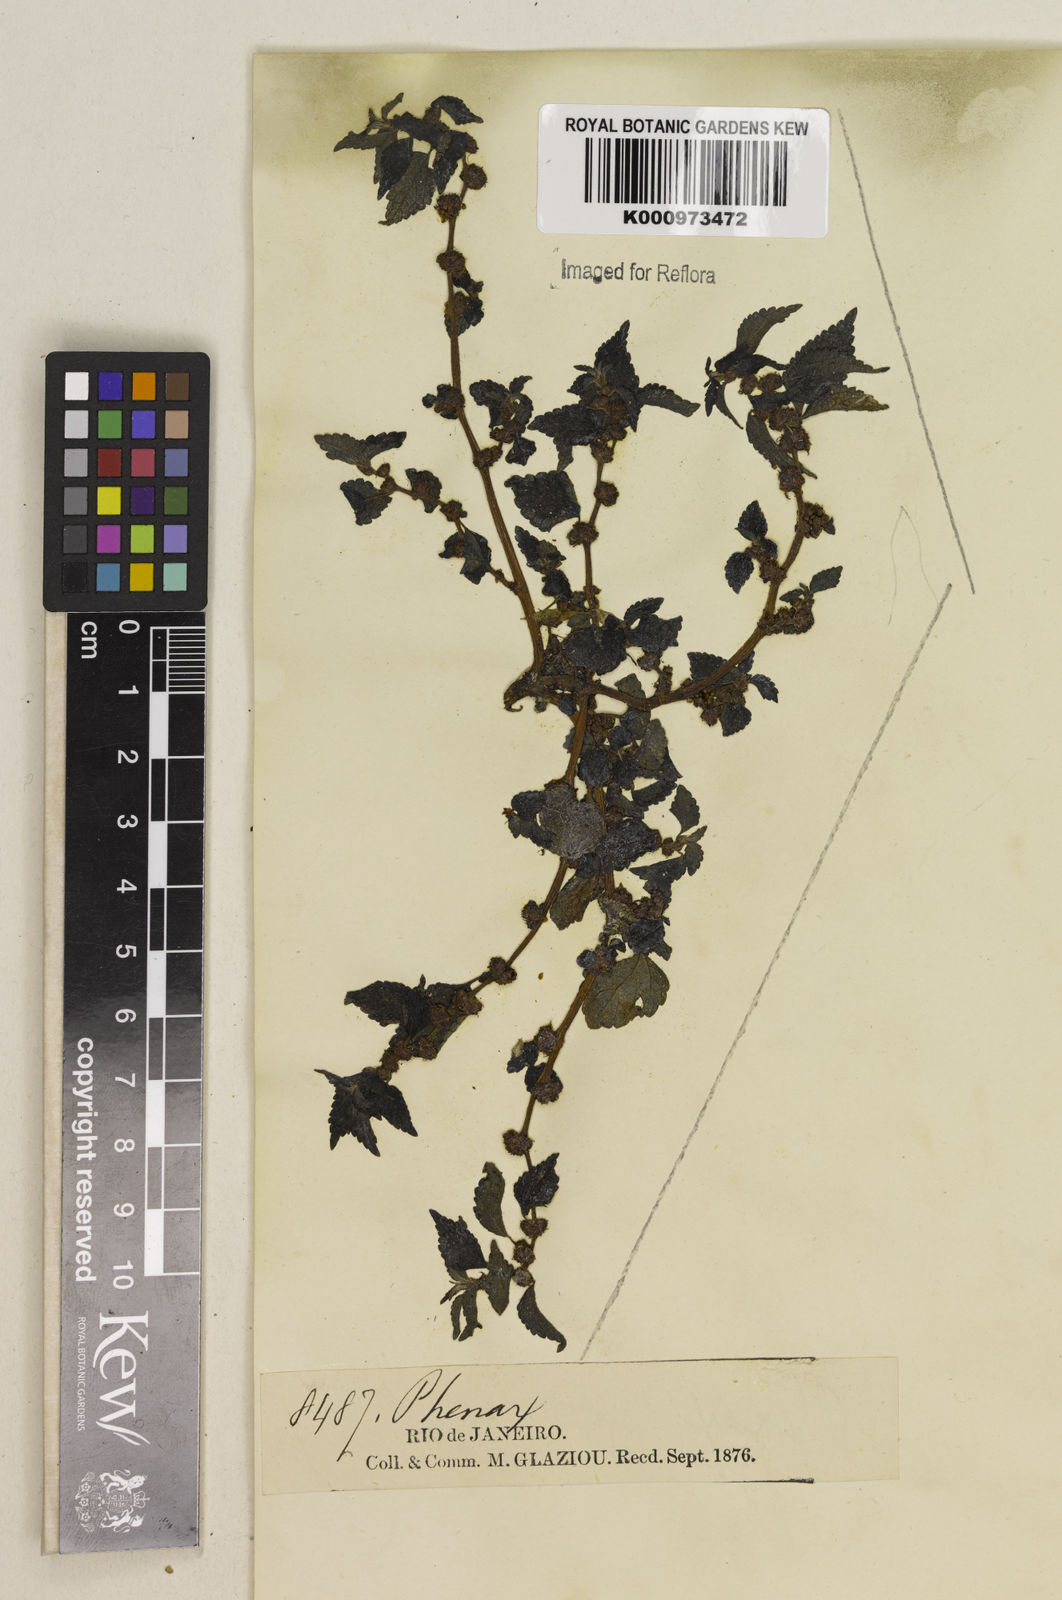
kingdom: Plantae
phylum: Tracheophyta
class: Magnoliopsida
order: Rosales
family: Urticaceae
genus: Phenax
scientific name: Phenax sonneratii
